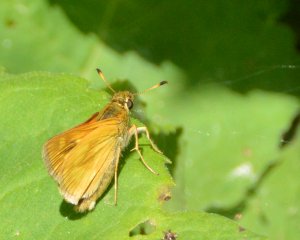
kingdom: Animalia
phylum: Arthropoda
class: Insecta
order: Lepidoptera
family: Hesperiidae
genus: Polites
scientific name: Polites
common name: Long Dash Skipper
